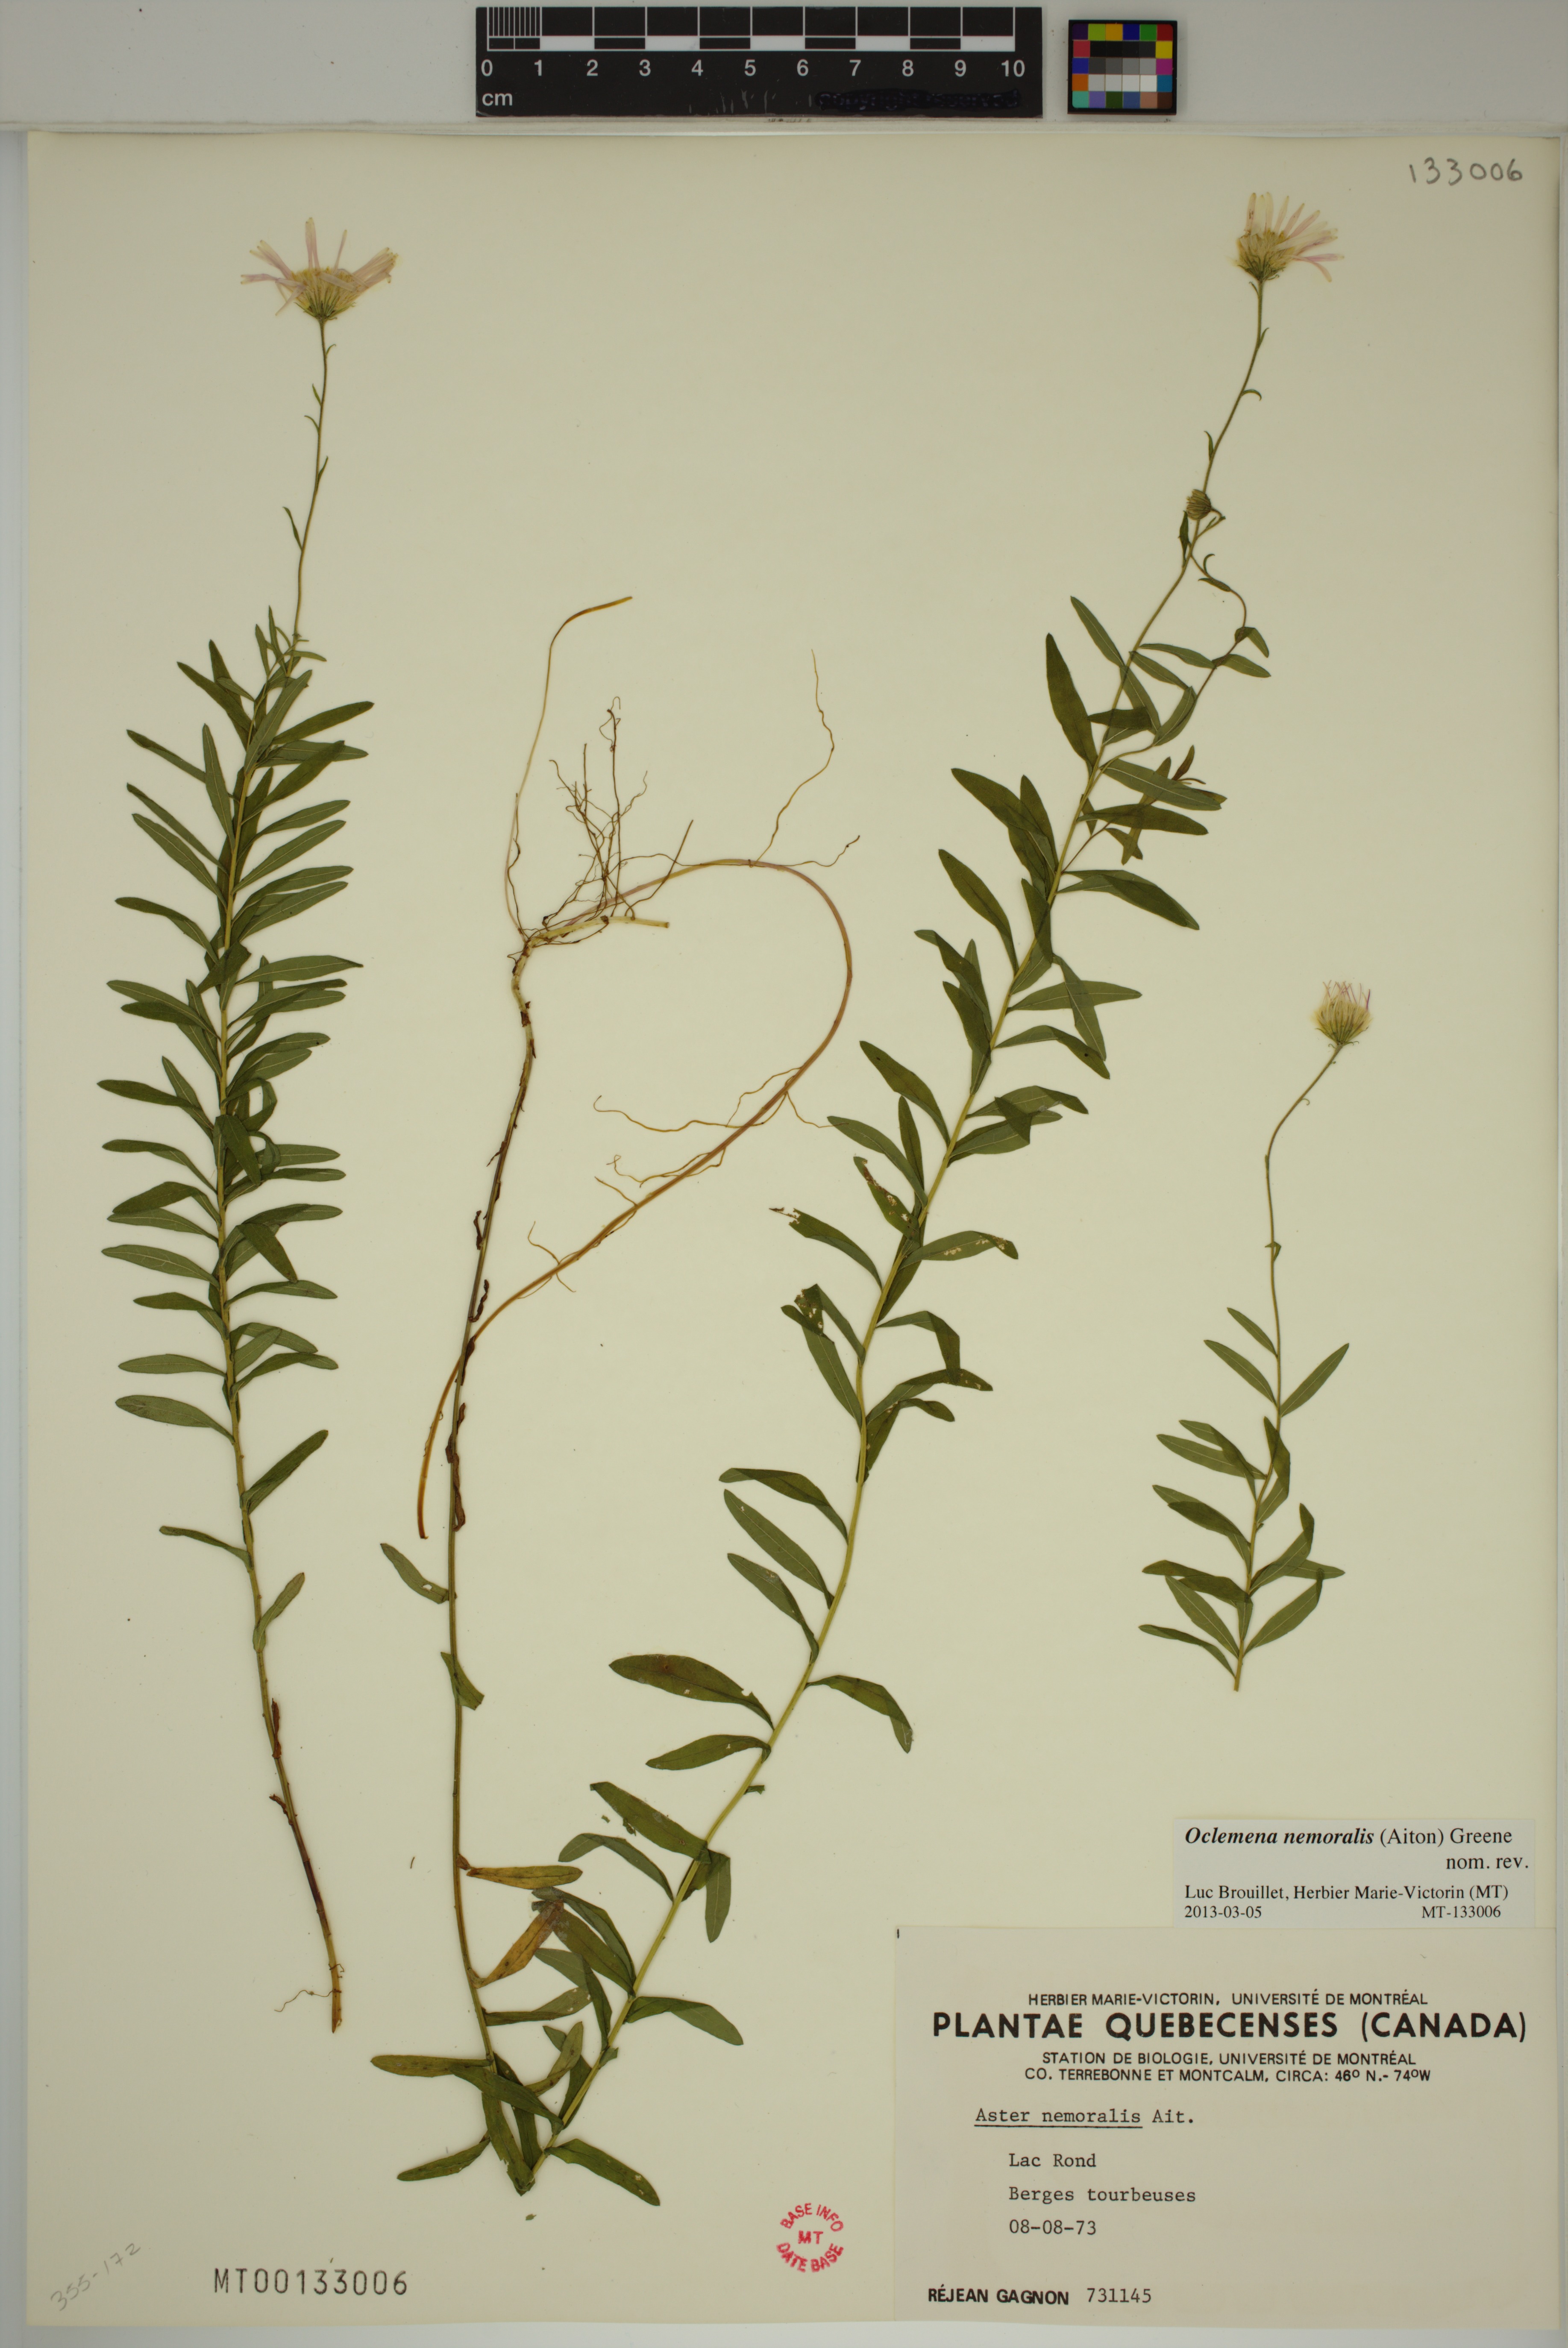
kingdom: Plantae
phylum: Tracheophyta
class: Magnoliopsida
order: Asterales
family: Asteraceae
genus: Oclemena
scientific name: Oclemena nemoralis
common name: Bog aster
